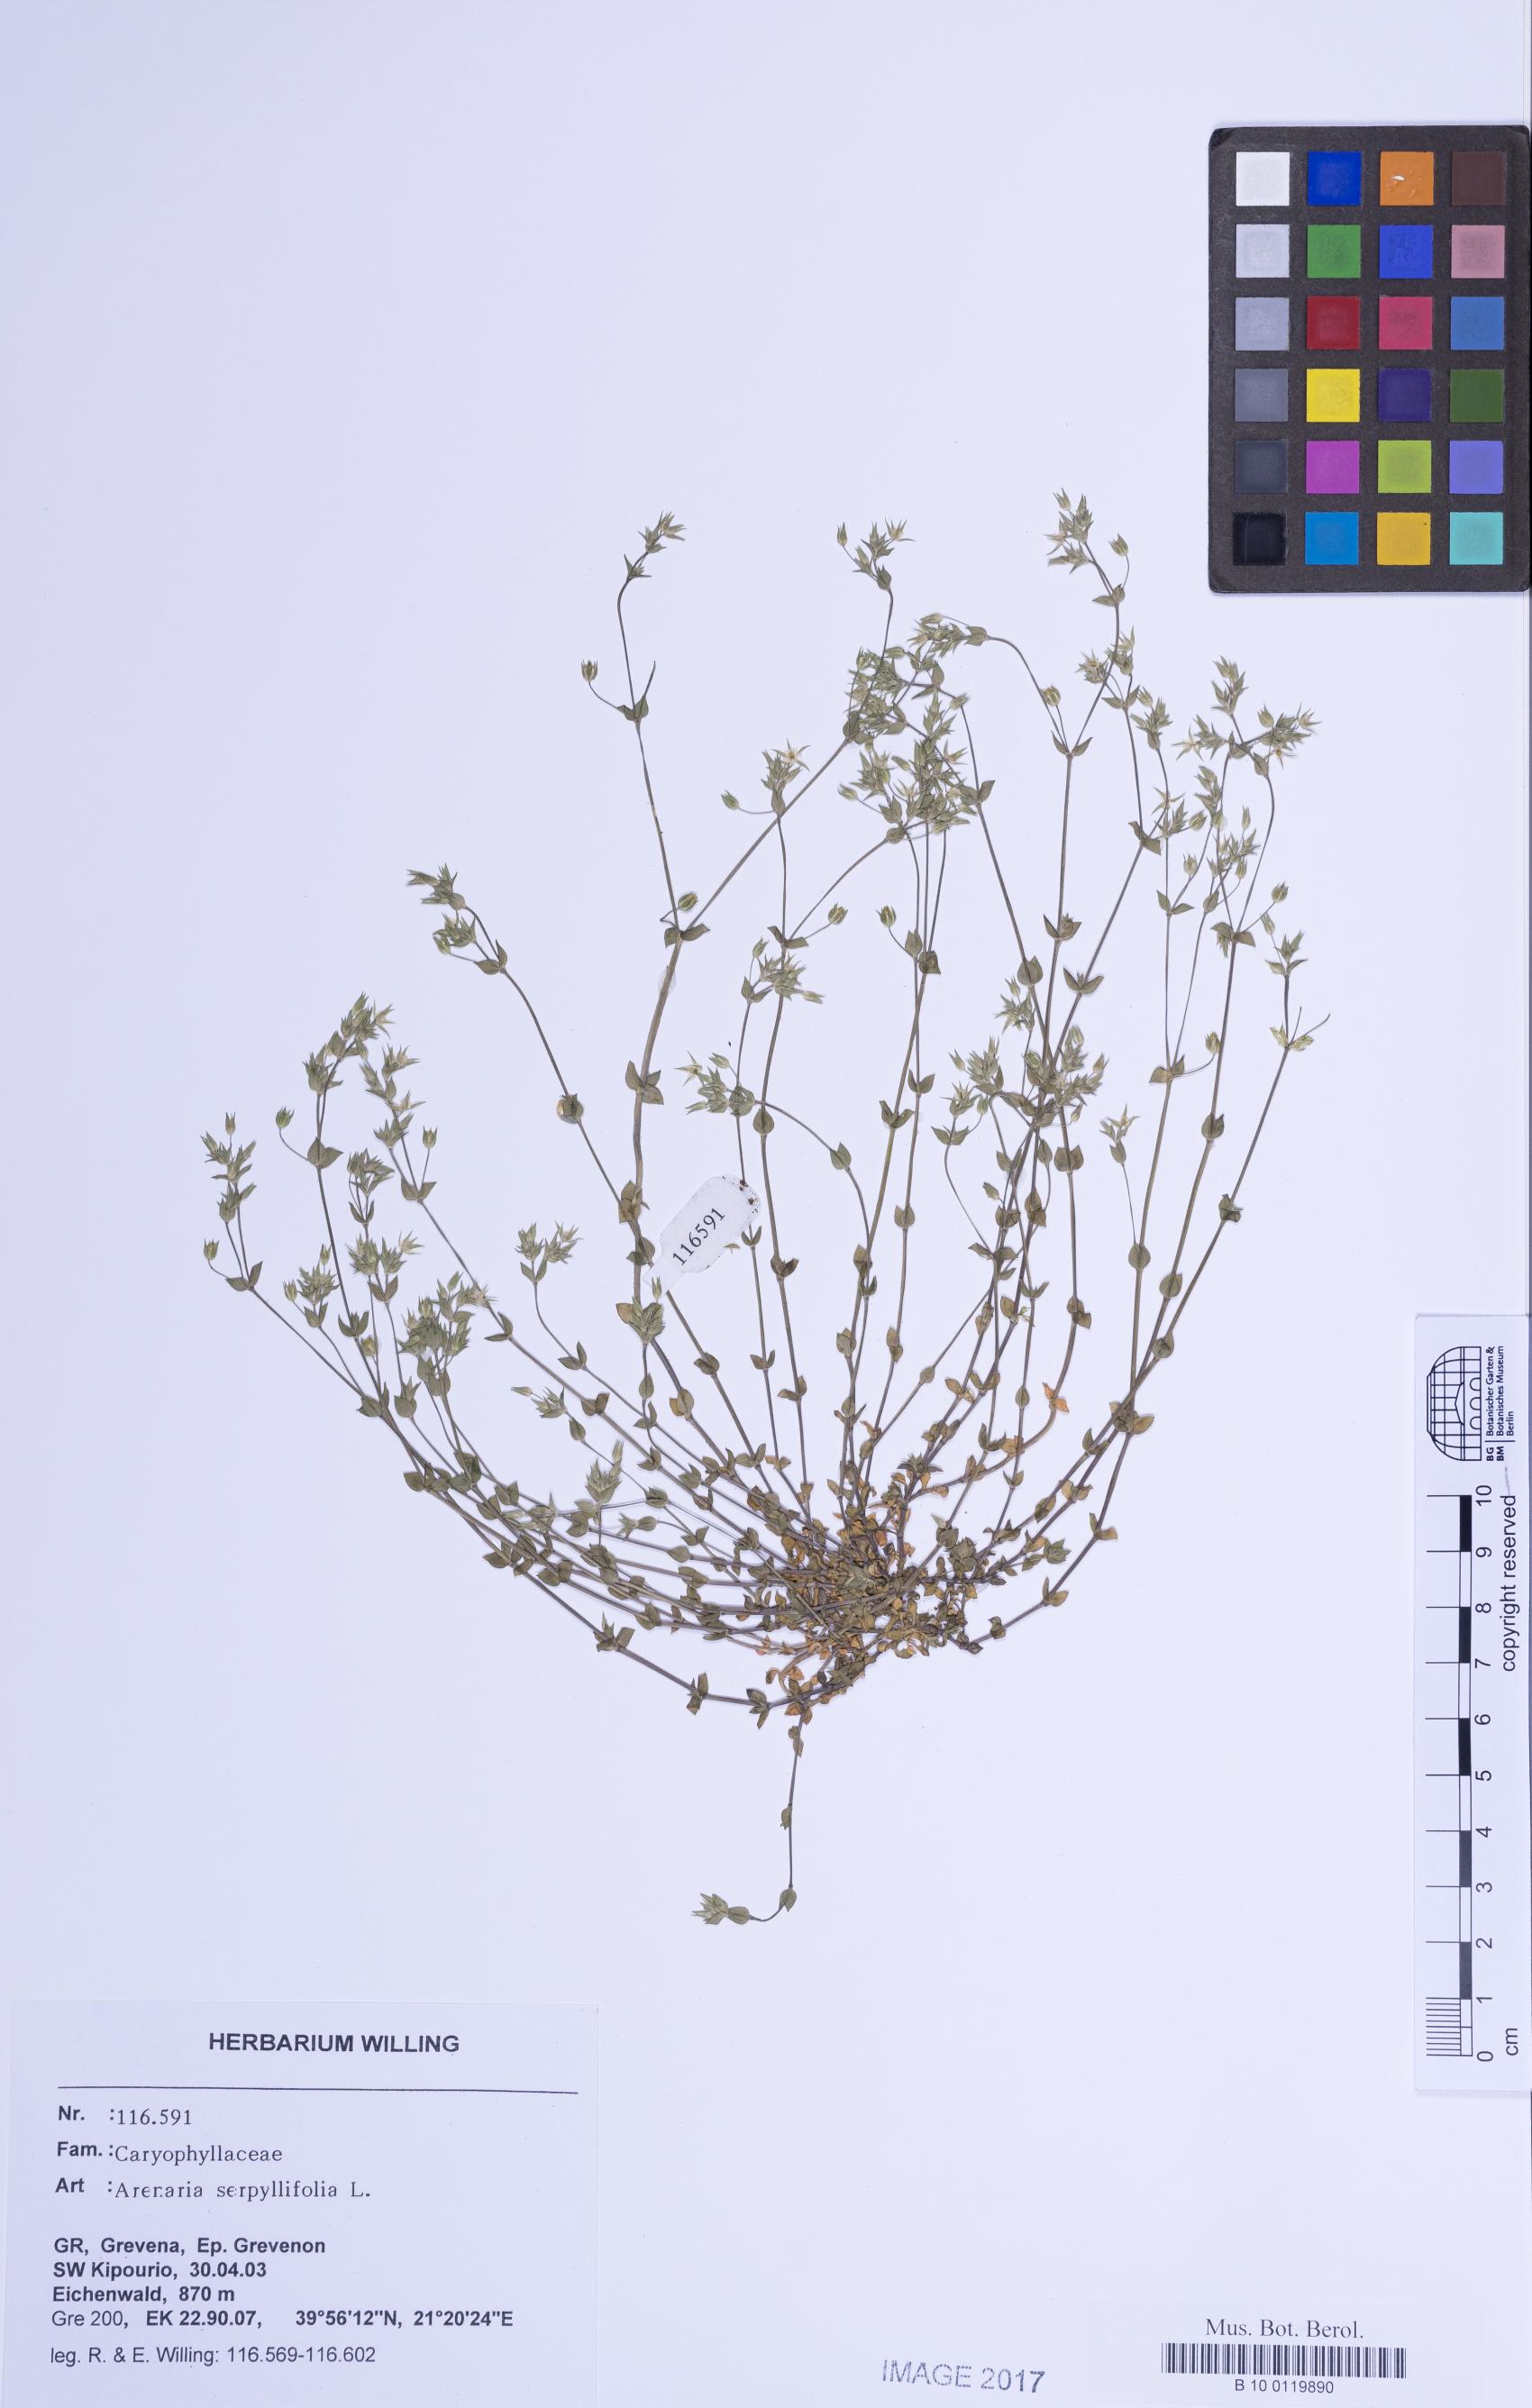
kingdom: Plantae
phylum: Tracheophyta
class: Magnoliopsida
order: Caryophyllales
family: Caryophyllaceae
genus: Arenaria
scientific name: Arenaria serpyllifolia
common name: Thyme-leaved sandwort
